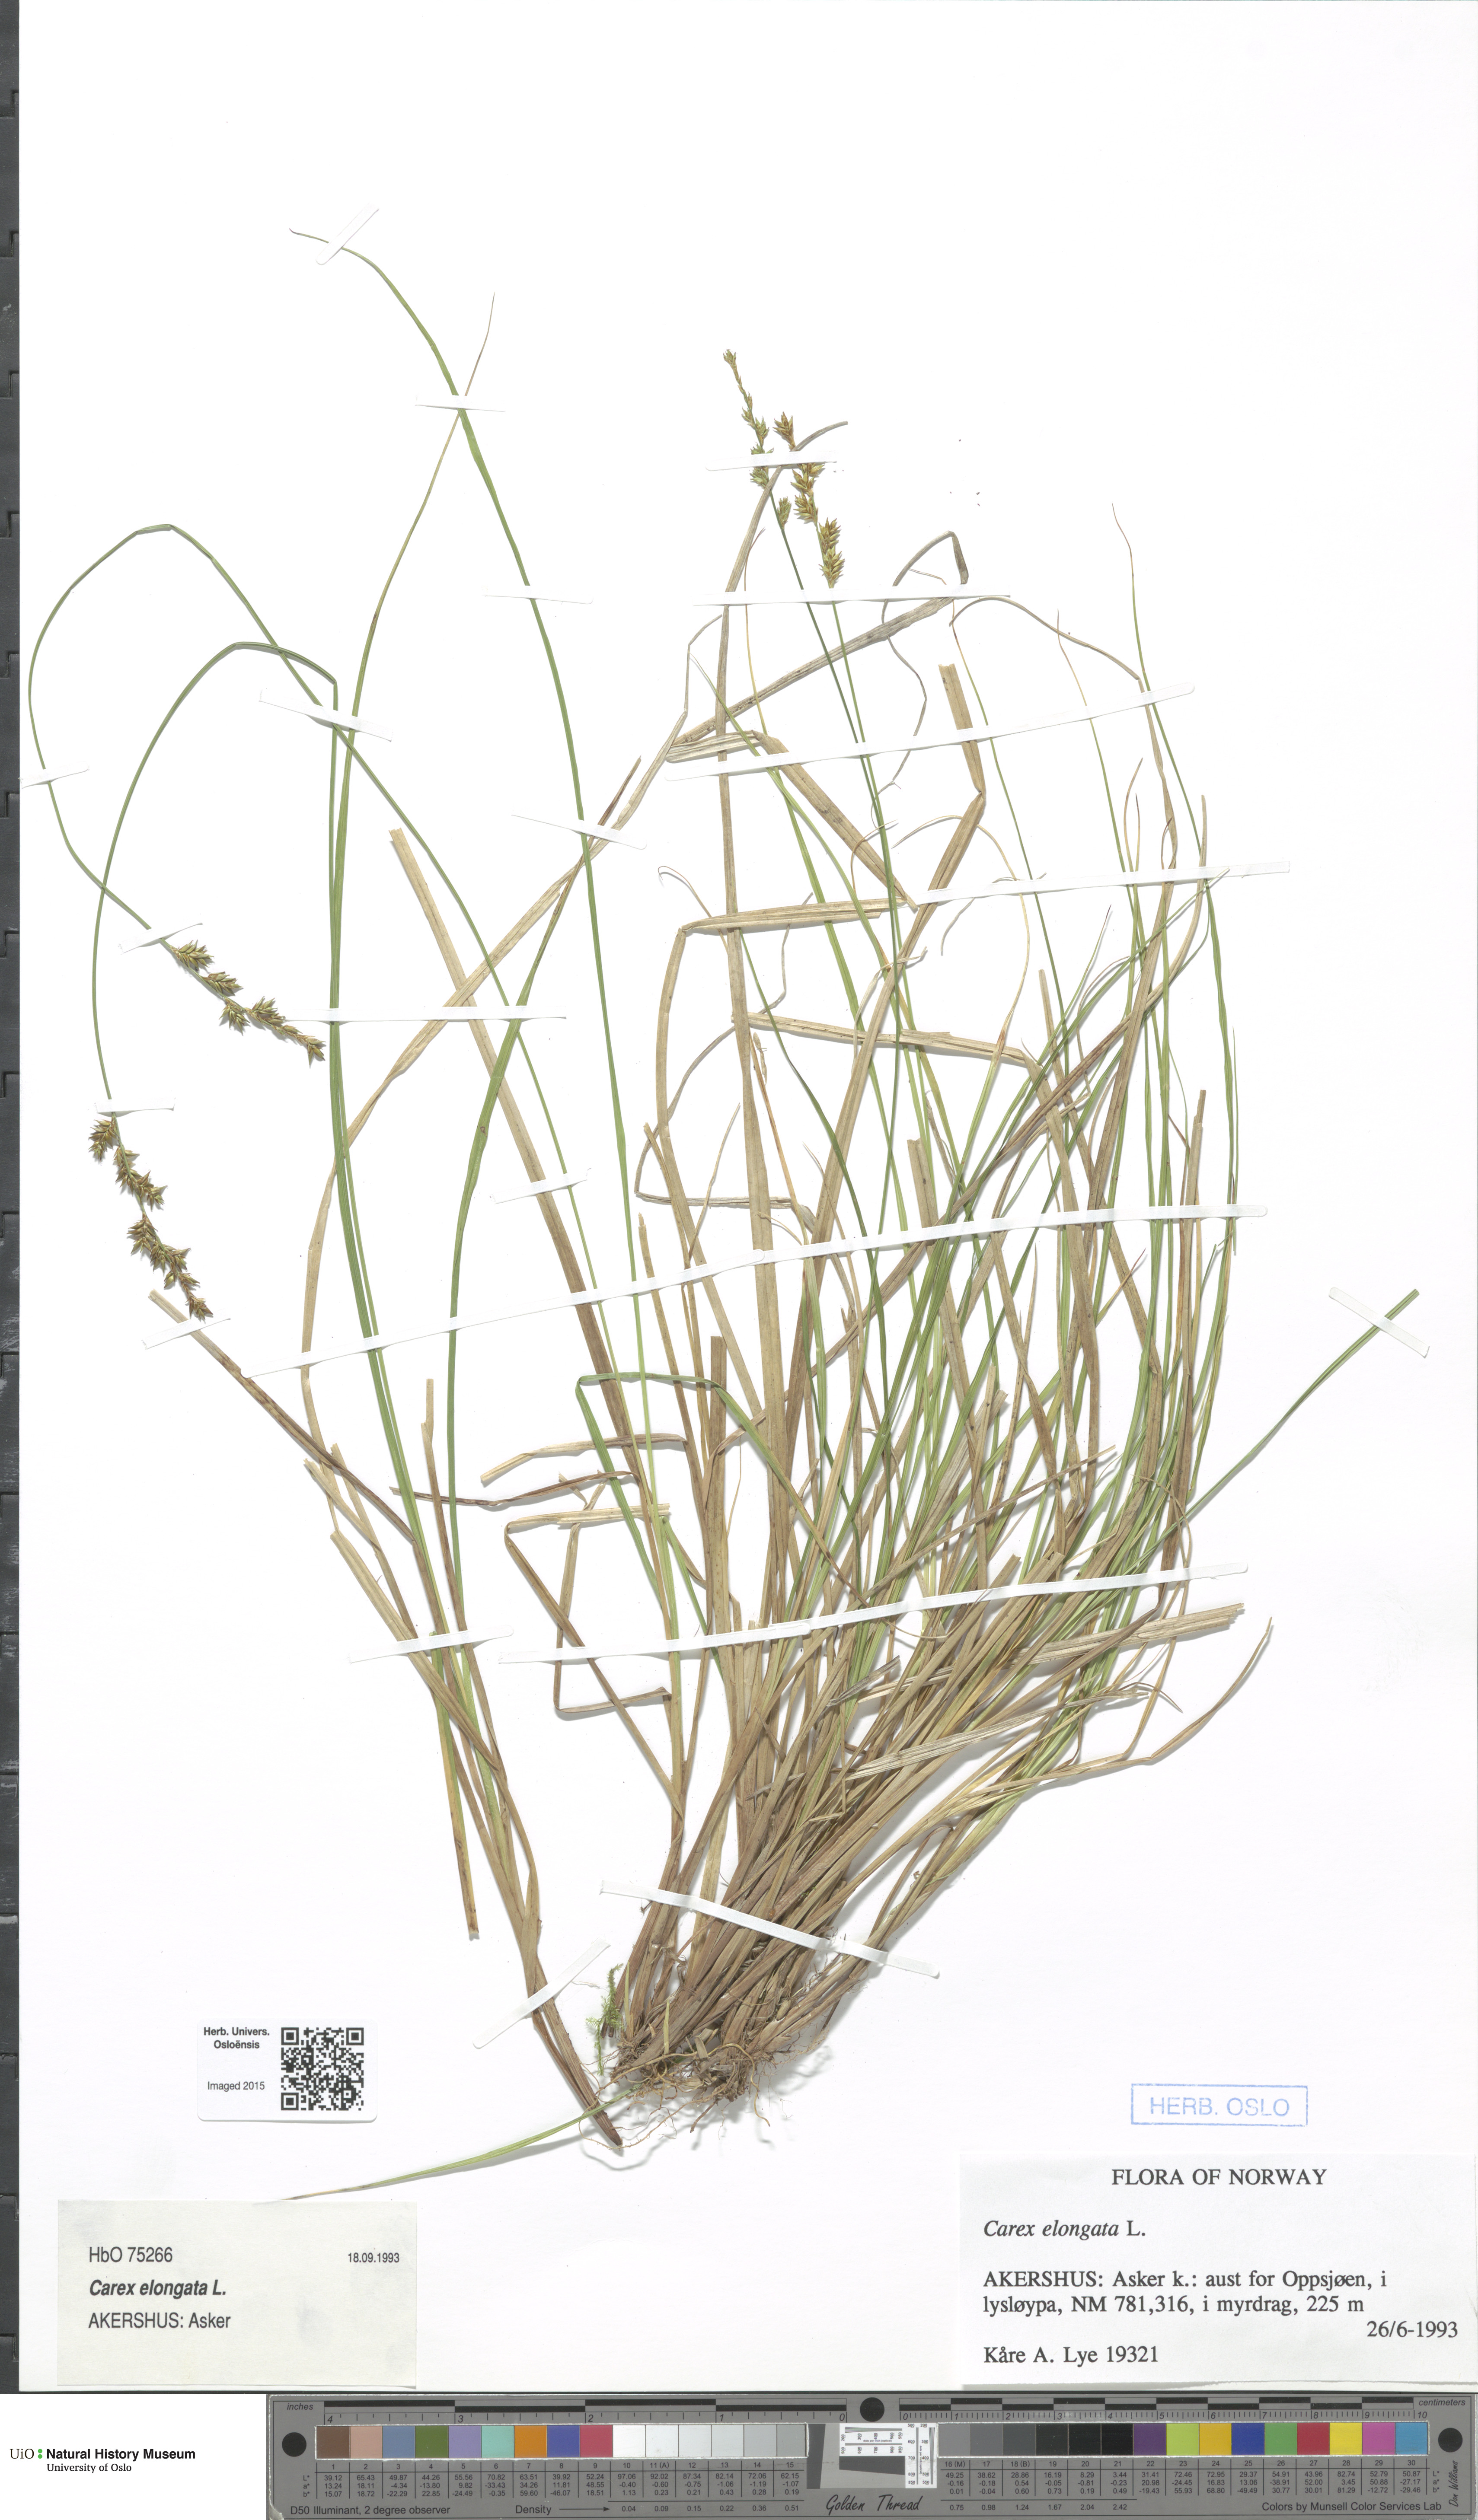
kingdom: Plantae
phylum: Tracheophyta
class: Liliopsida
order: Poales
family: Cyperaceae
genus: Carex
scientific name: Carex elongata
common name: Elongated sedge
